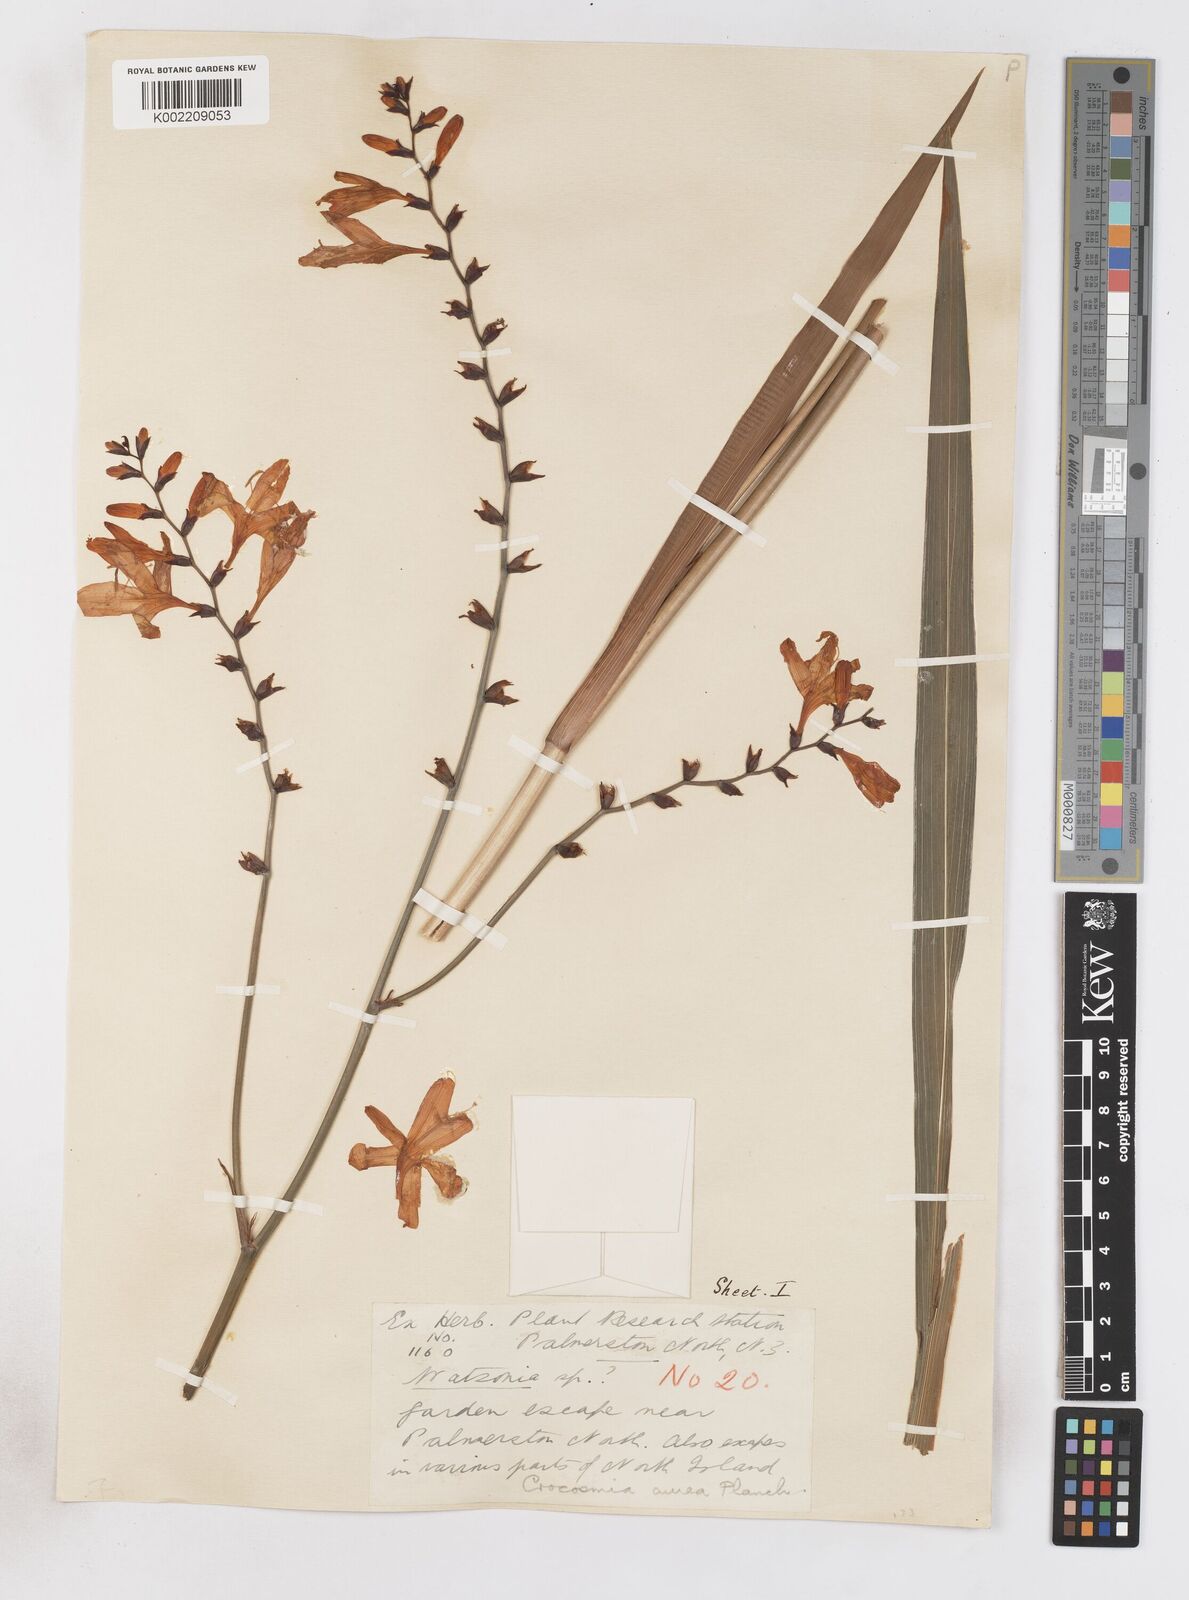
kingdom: Plantae
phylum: Tracheophyta
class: Liliopsida
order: Asparagales
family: Iridaceae
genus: Crocosmia
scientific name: Crocosmia aurea
